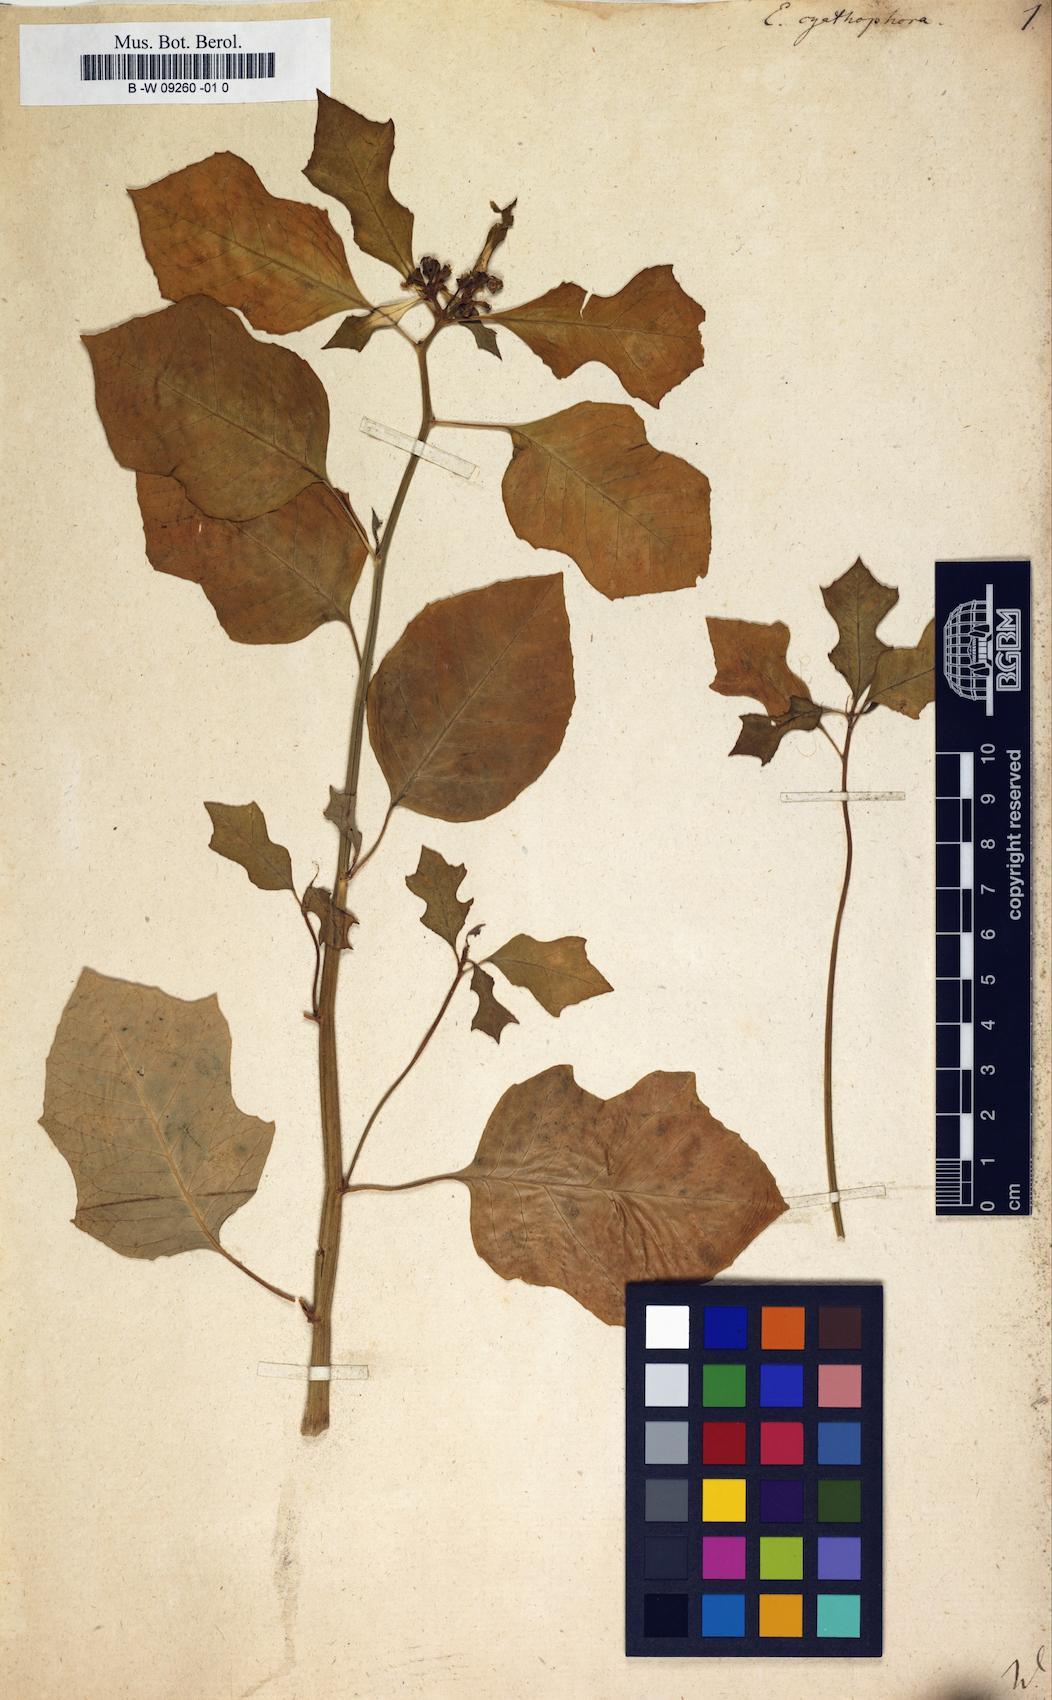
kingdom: Plantae
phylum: Tracheophyta
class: Magnoliopsida
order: Malpighiales
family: Euphorbiaceae
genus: Euphorbia
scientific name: Euphorbia heterophylla
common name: Mexican fireplant
